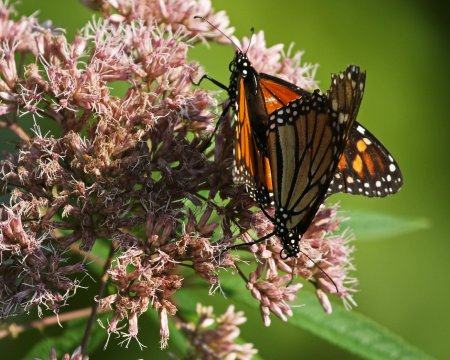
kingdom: Animalia
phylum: Arthropoda
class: Insecta
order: Lepidoptera
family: Nymphalidae
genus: Danaus
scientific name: Danaus plexippus
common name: Monarch
